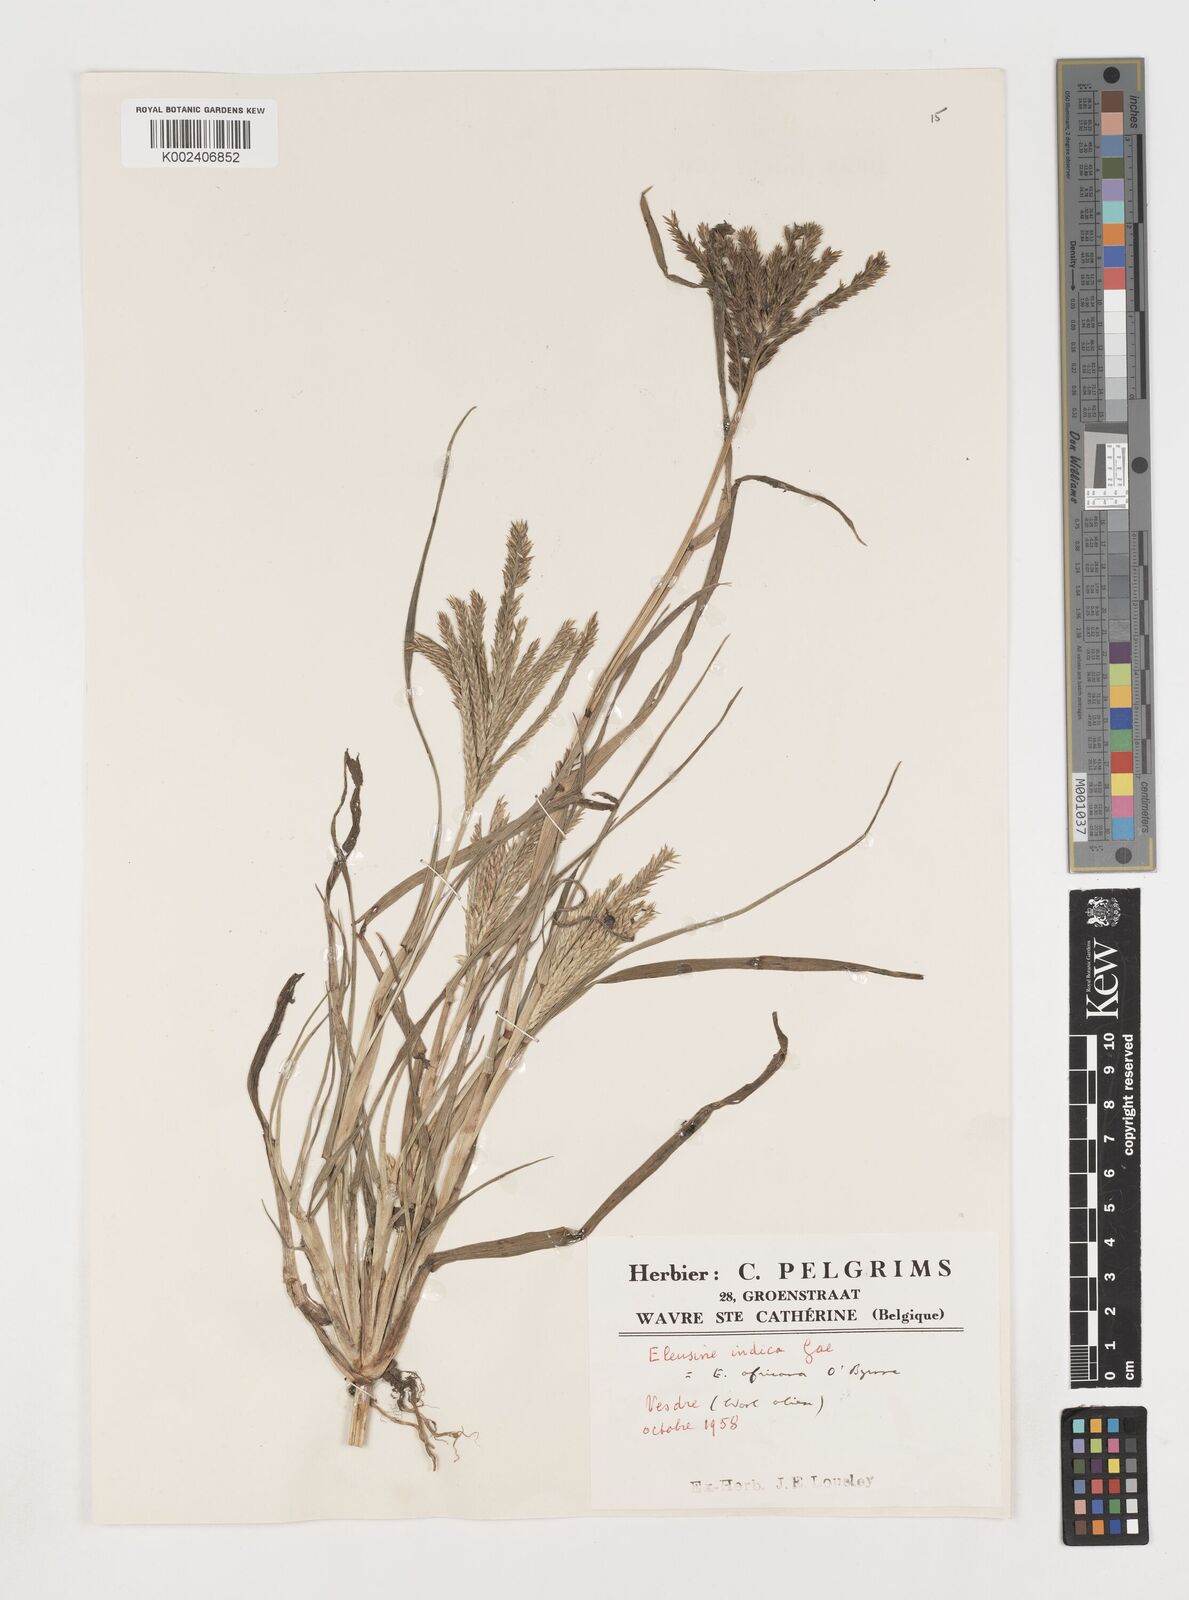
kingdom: Plantae
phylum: Tracheophyta
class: Liliopsida
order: Poales
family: Poaceae
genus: Eleusine
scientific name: Eleusine africana
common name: Wild african finger millet
